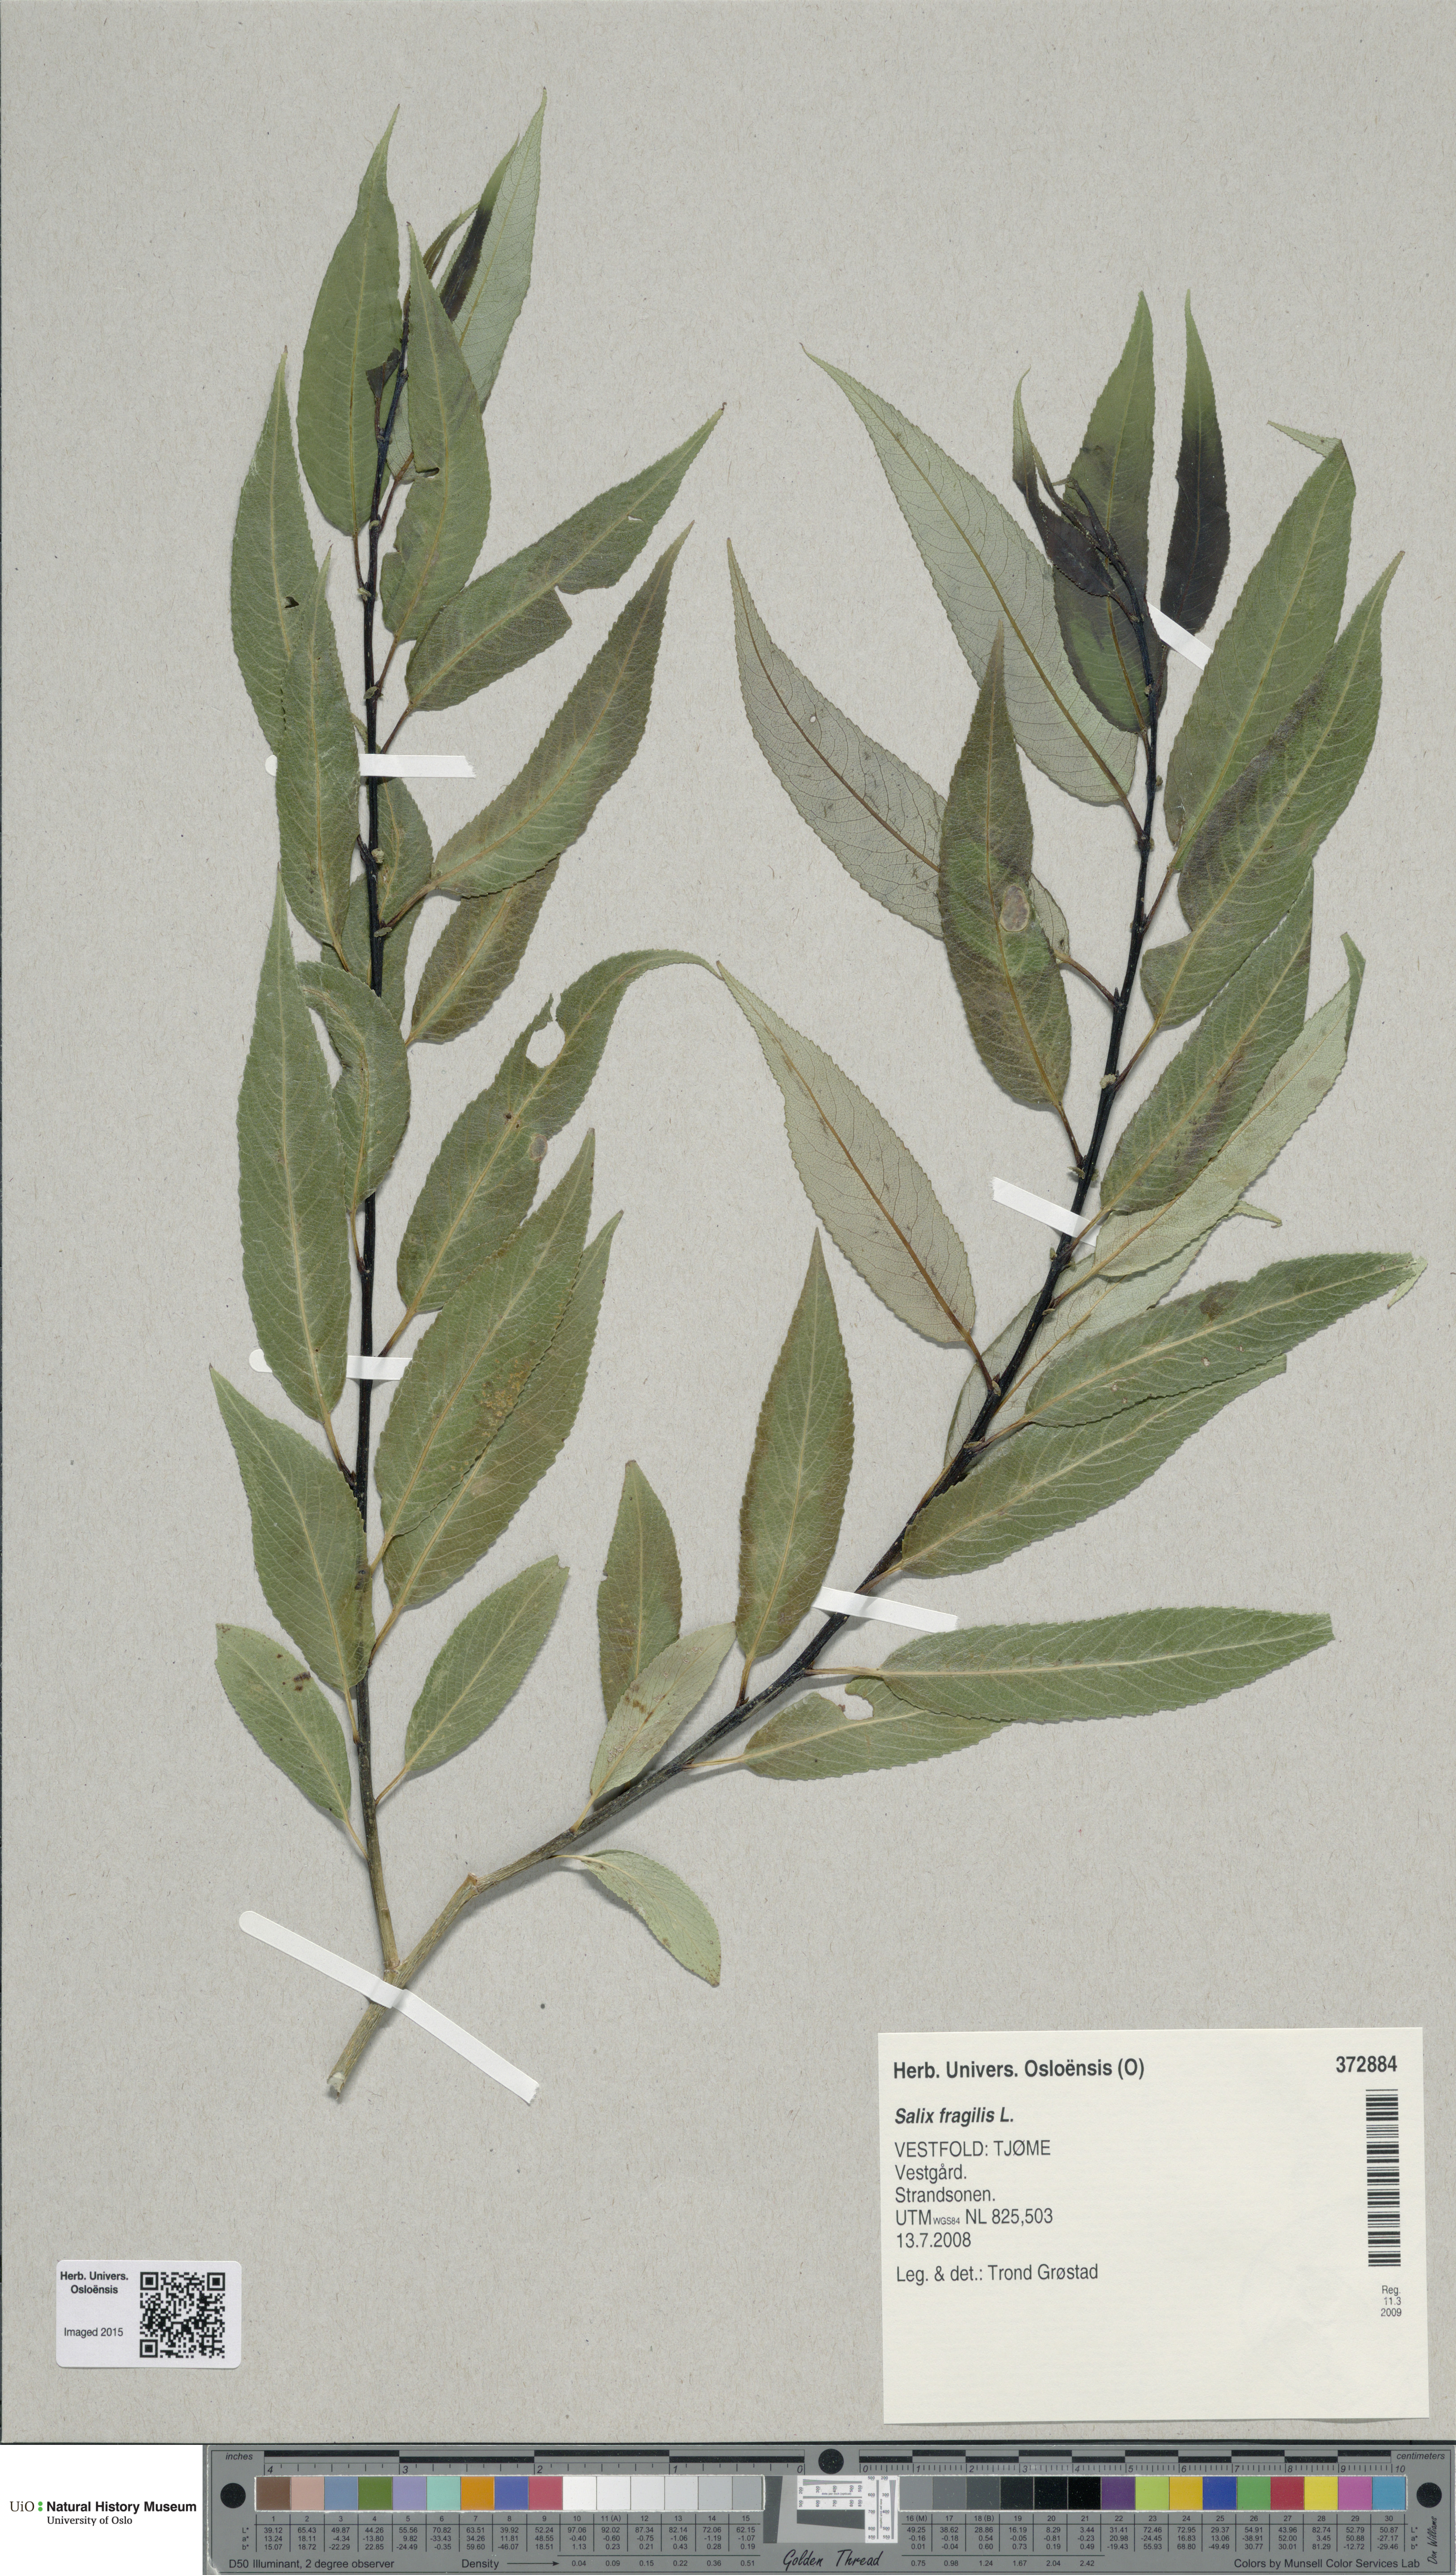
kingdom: Plantae
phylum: Tracheophyta
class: Magnoliopsida
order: Malpighiales
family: Salicaceae
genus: Salix
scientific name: Salix alba
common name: White willow
